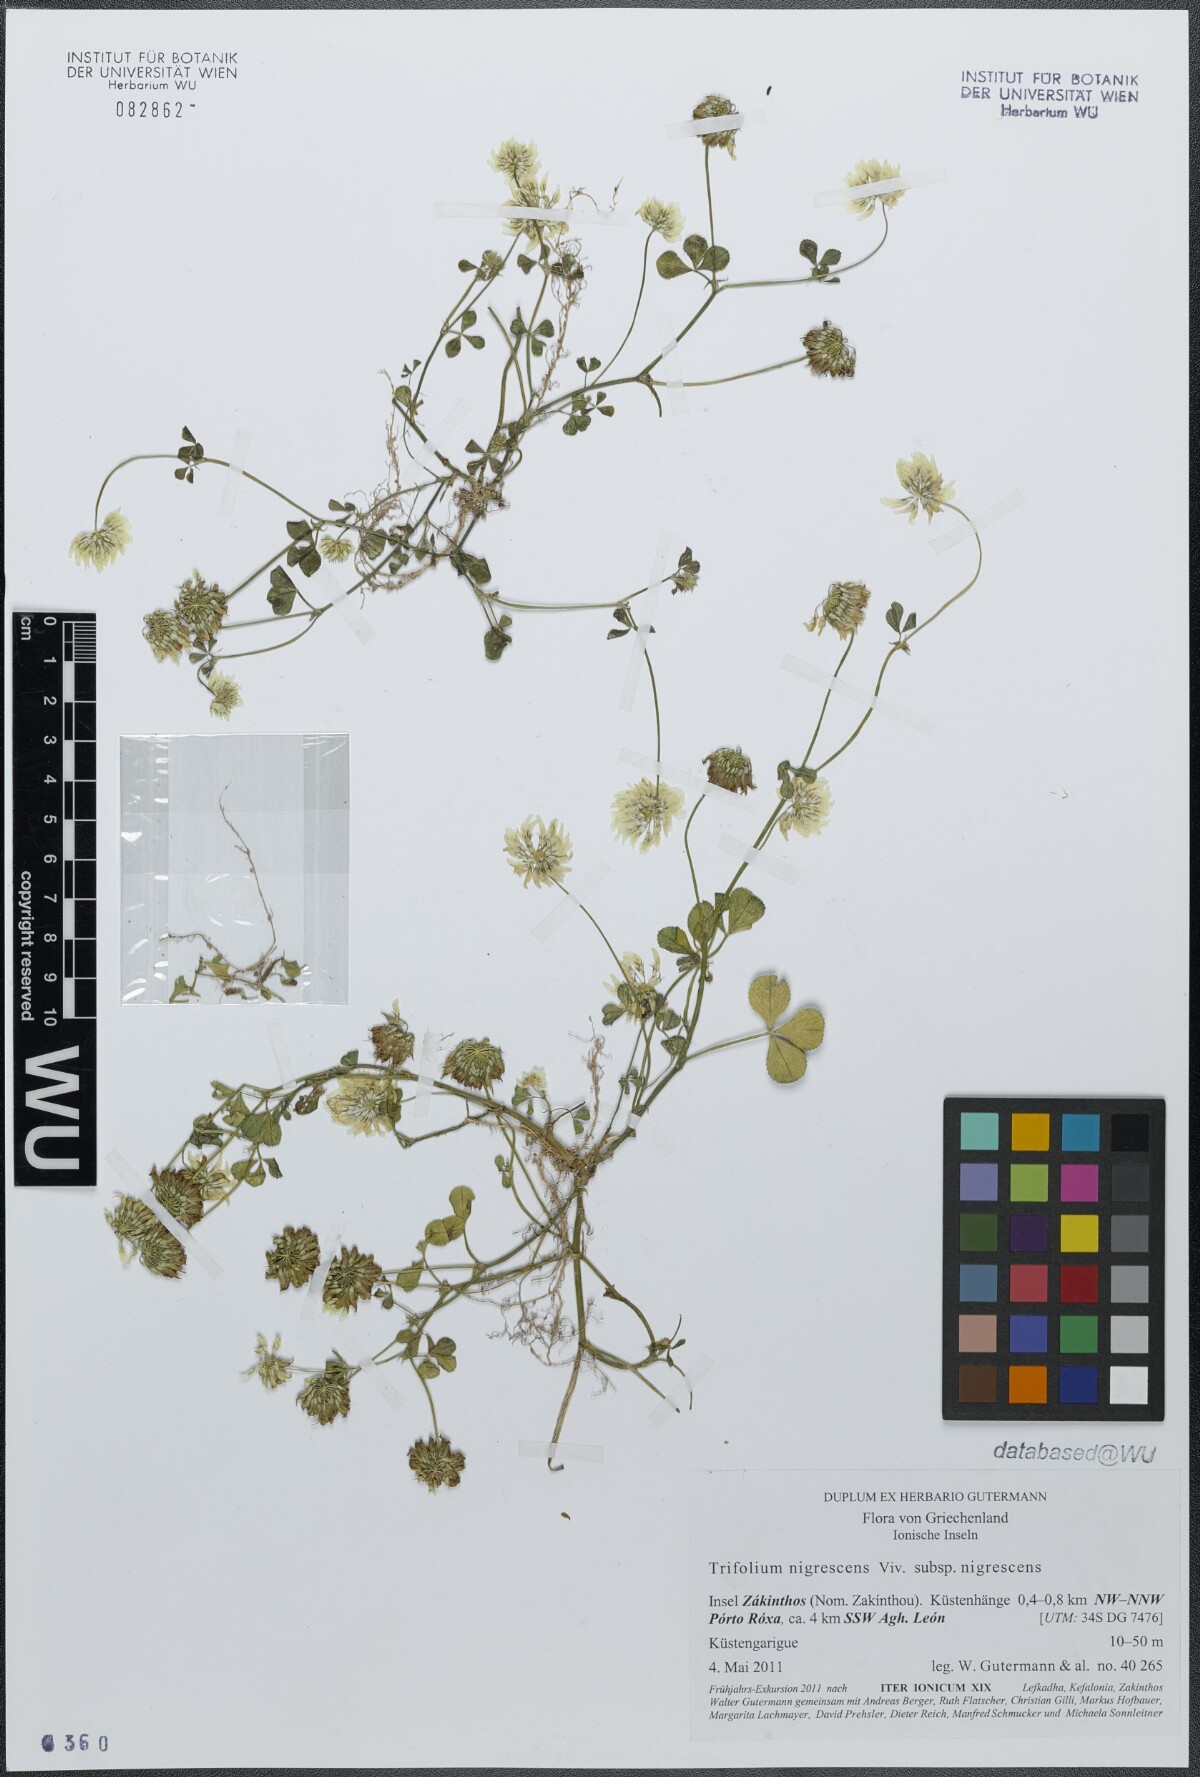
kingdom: Plantae
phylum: Tracheophyta
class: Magnoliopsida
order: Fabales
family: Fabaceae
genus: Trifolium
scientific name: Trifolium nigrescens
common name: Small white clover
